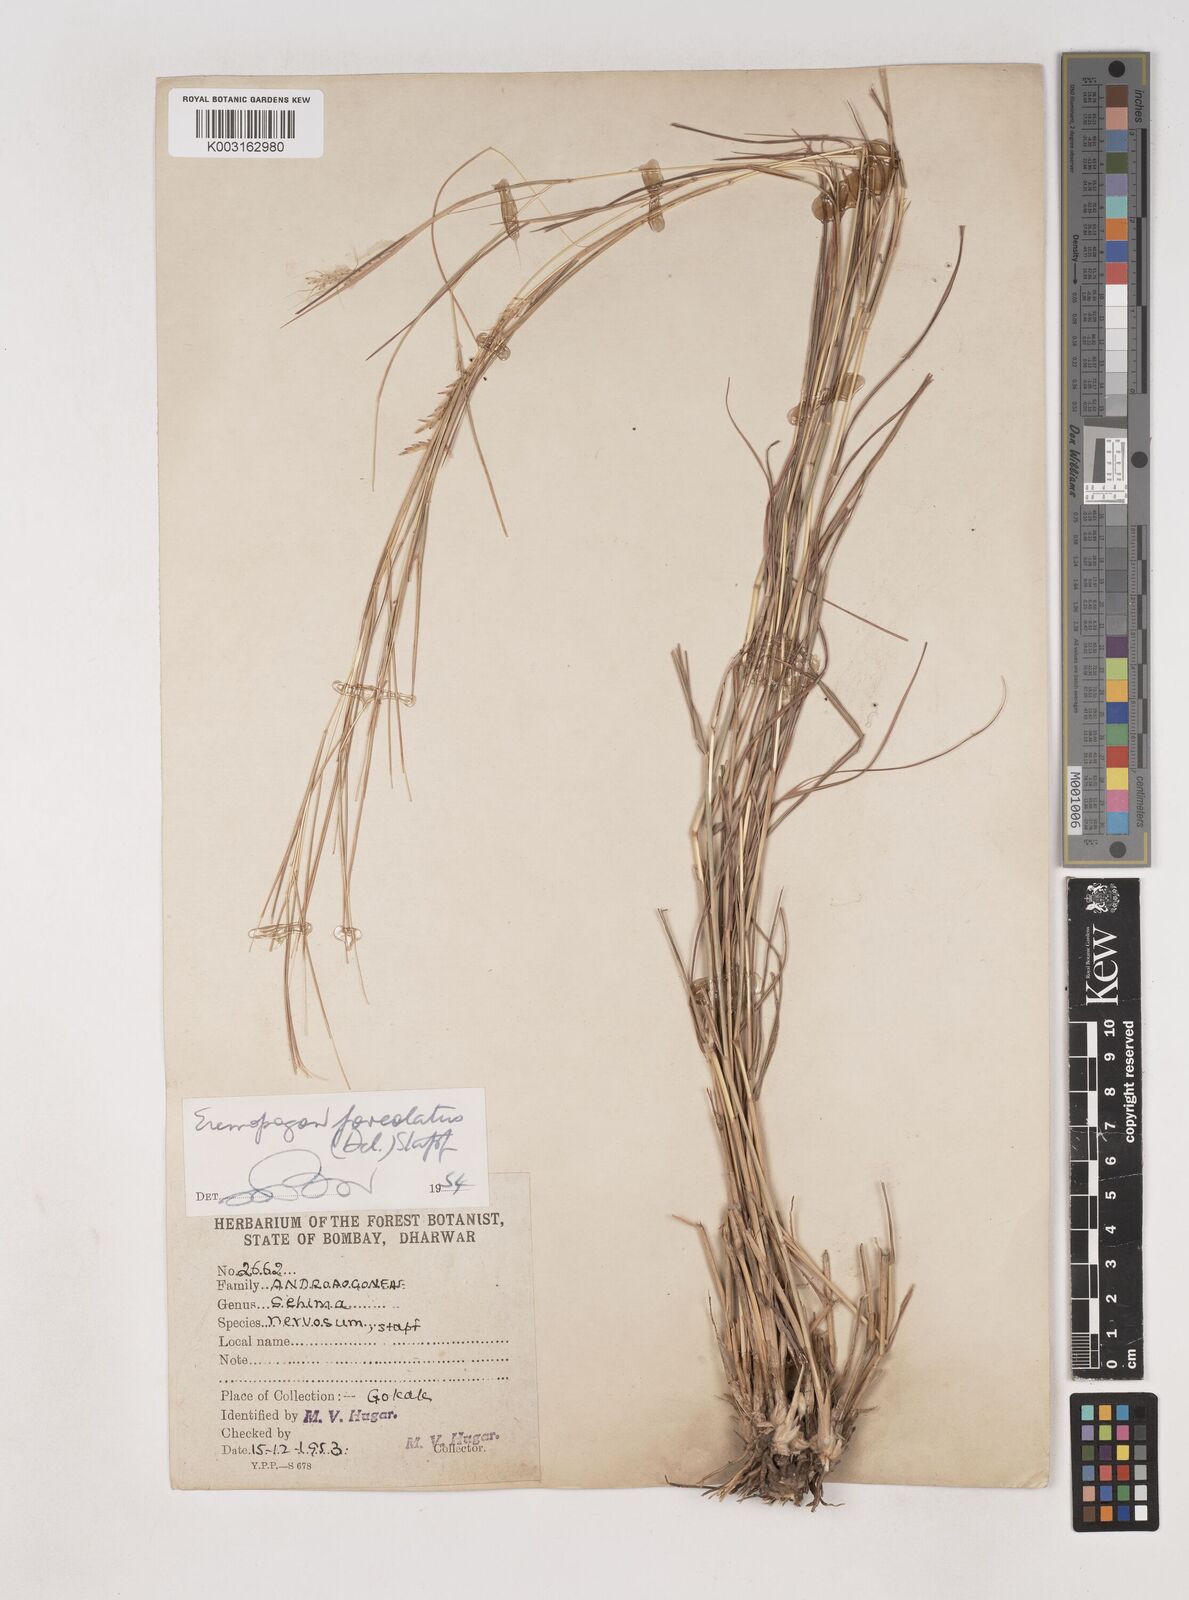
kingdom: Plantae
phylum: Tracheophyta
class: Liliopsida
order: Poales
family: Poaceae
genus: Dichanthium
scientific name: Dichanthium foveolatum
